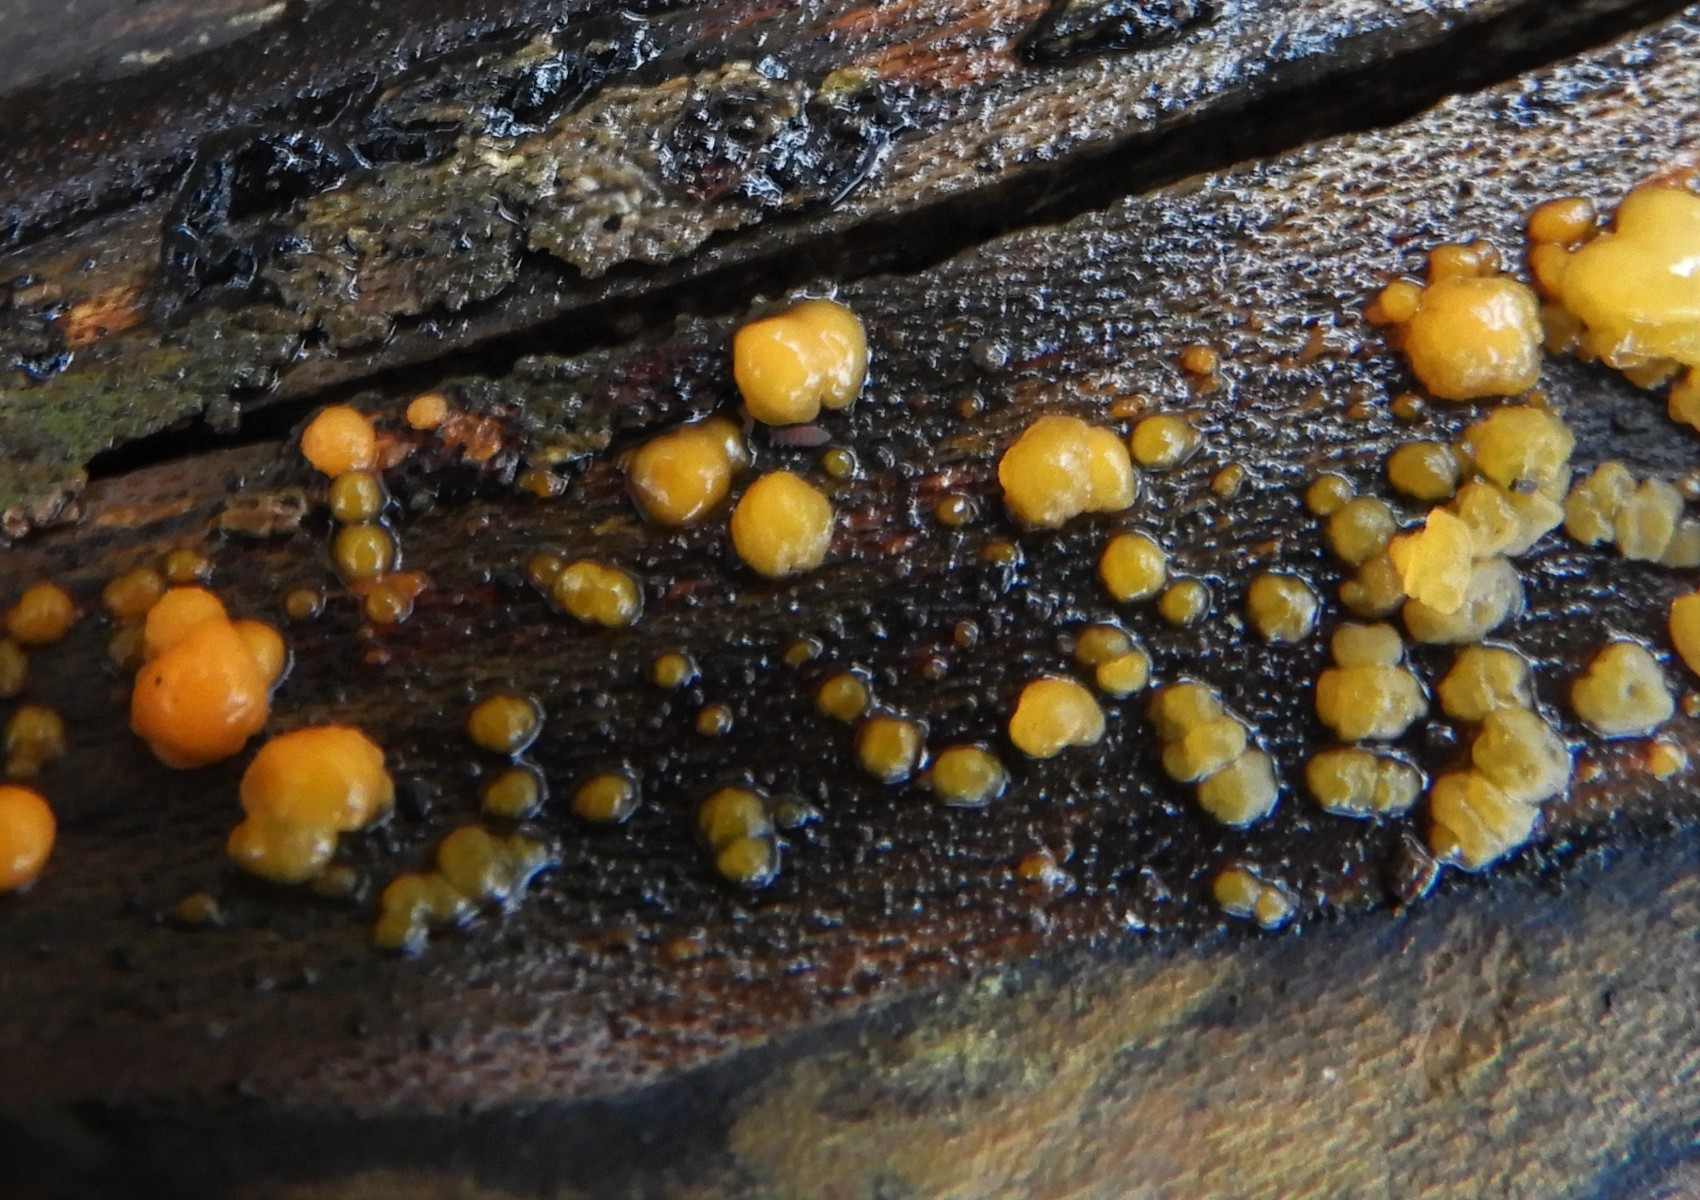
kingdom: Fungi
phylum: Basidiomycota
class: Dacrymycetes
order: Dacrymycetales
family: Dacrymycetaceae
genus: Dacrymyces
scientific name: Dacrymyces stillatus
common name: almindelig tåresvamp
